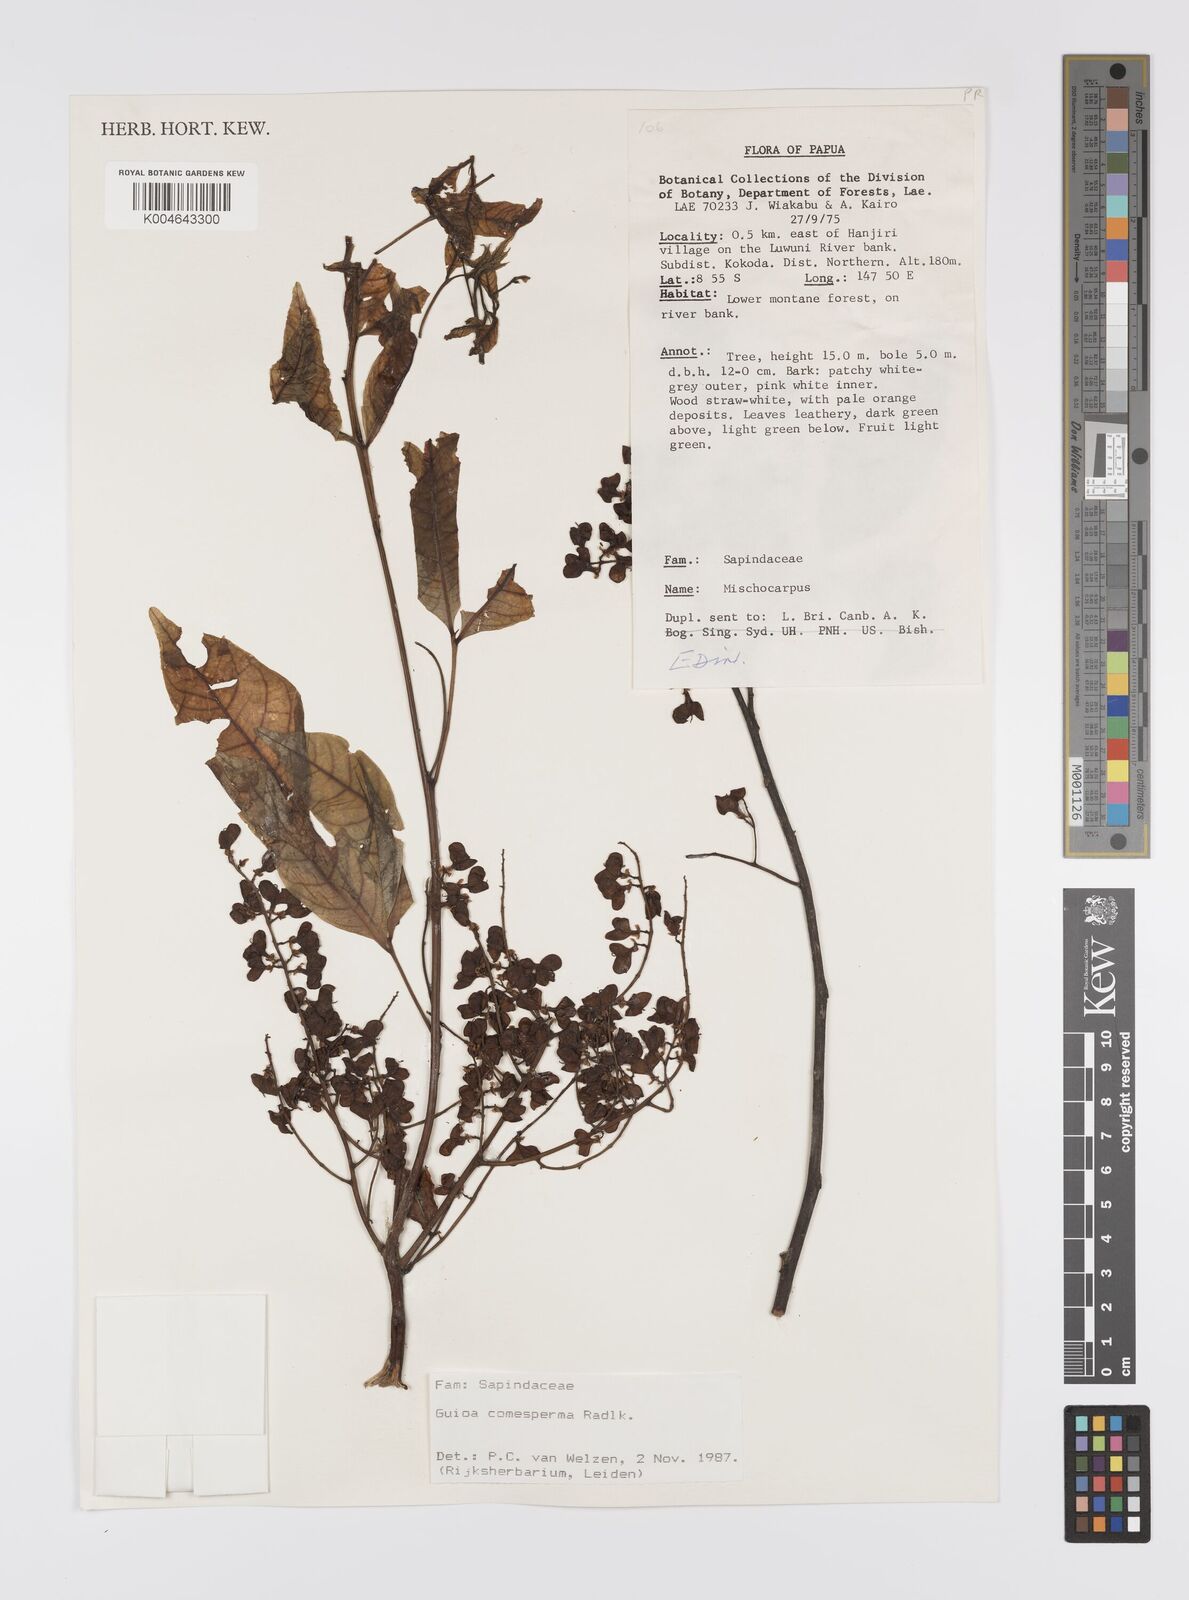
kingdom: Plantae
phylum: Tracheophyta
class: Magnoliopsida
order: Sapindales
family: Sapindaceae
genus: Guioa
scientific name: Guioa comesperma
